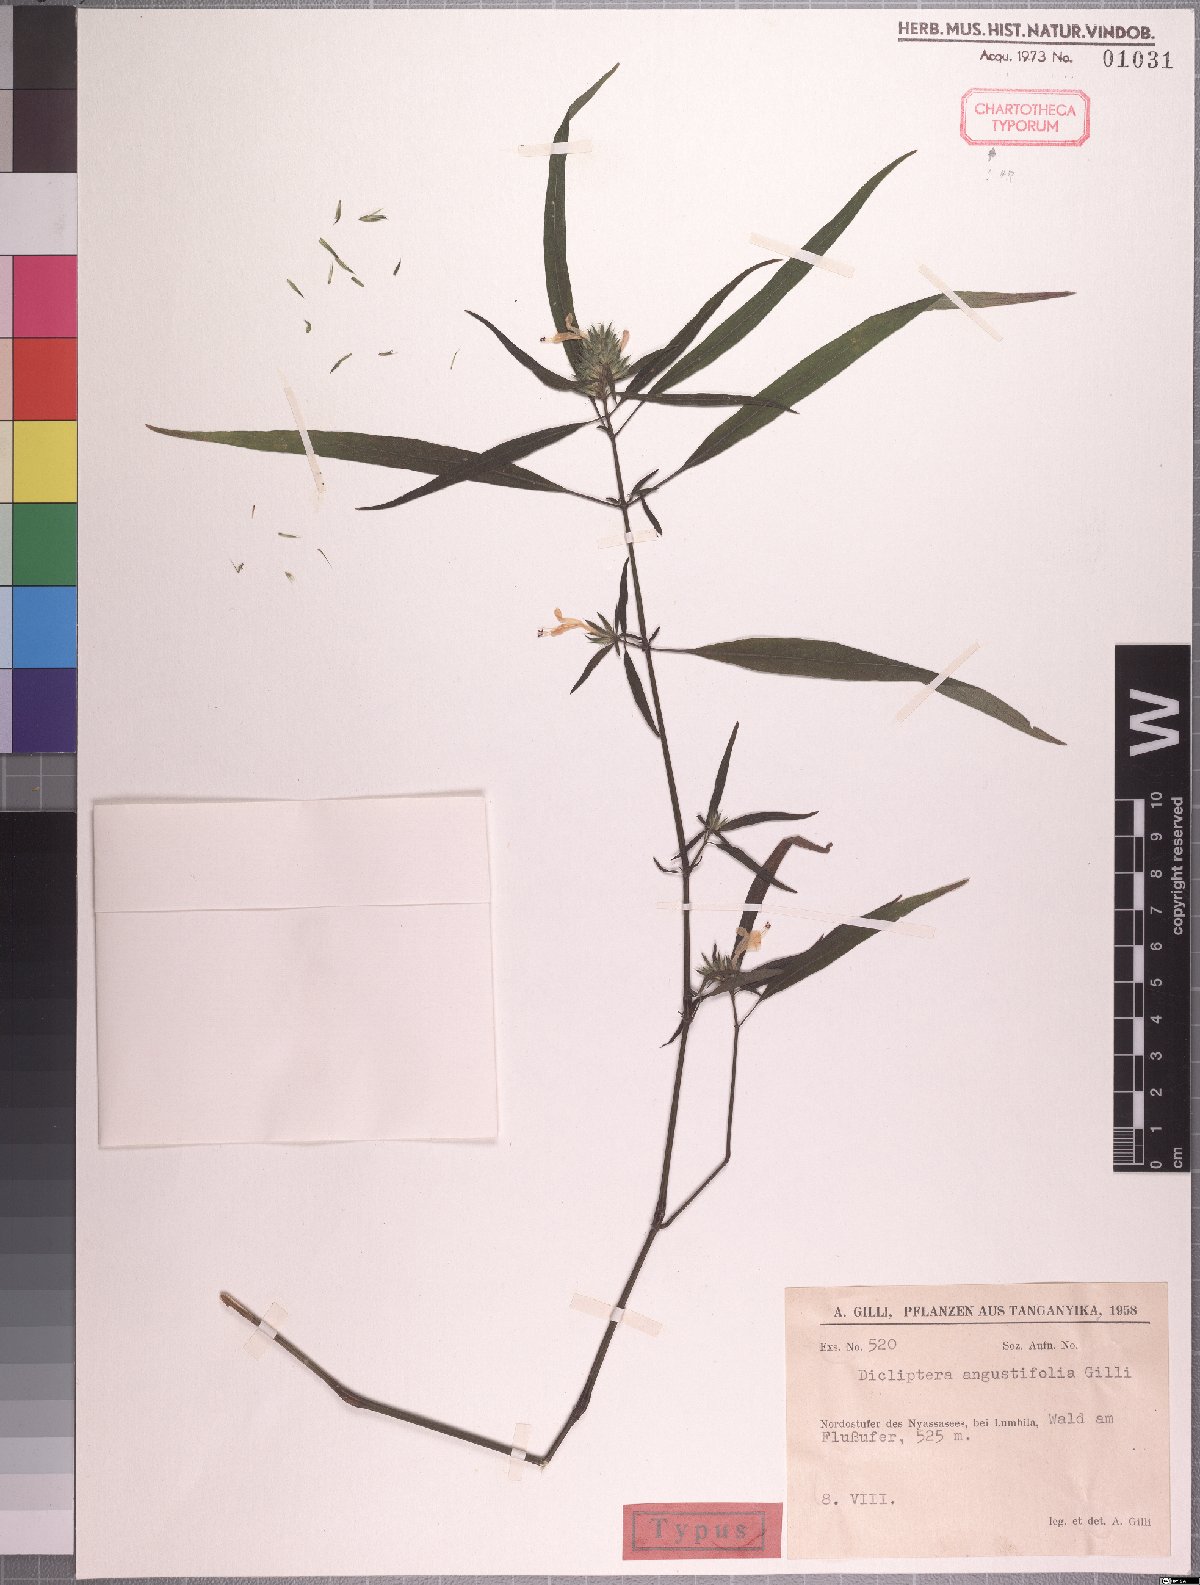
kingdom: Plantae
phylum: Tracheophyta
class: Magnoliopsida
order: Lamiales
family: Acanthaceae
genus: Dicliptera
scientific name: Dicliptera carvalhoi
